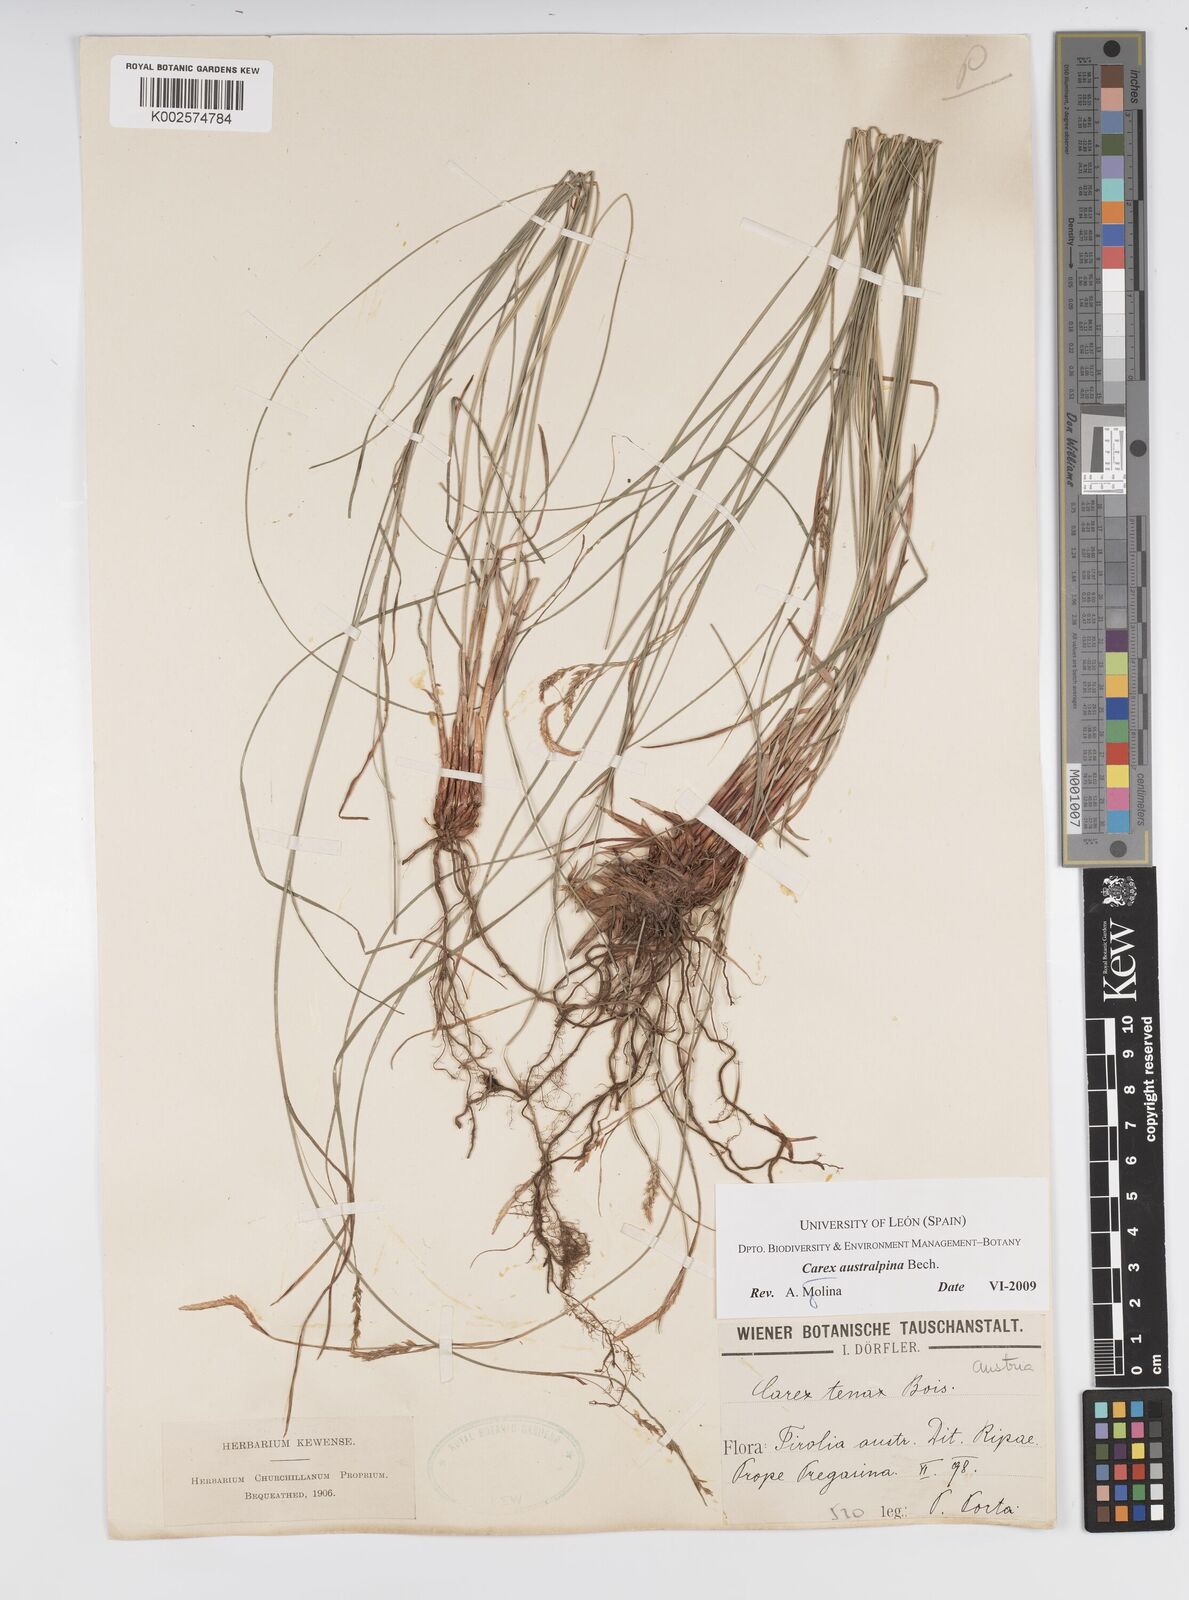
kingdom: Plantae
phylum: Tracheophyta
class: Liliopsida
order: Poales
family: Cyperaceae
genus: Carex
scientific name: Carex austroalpina
